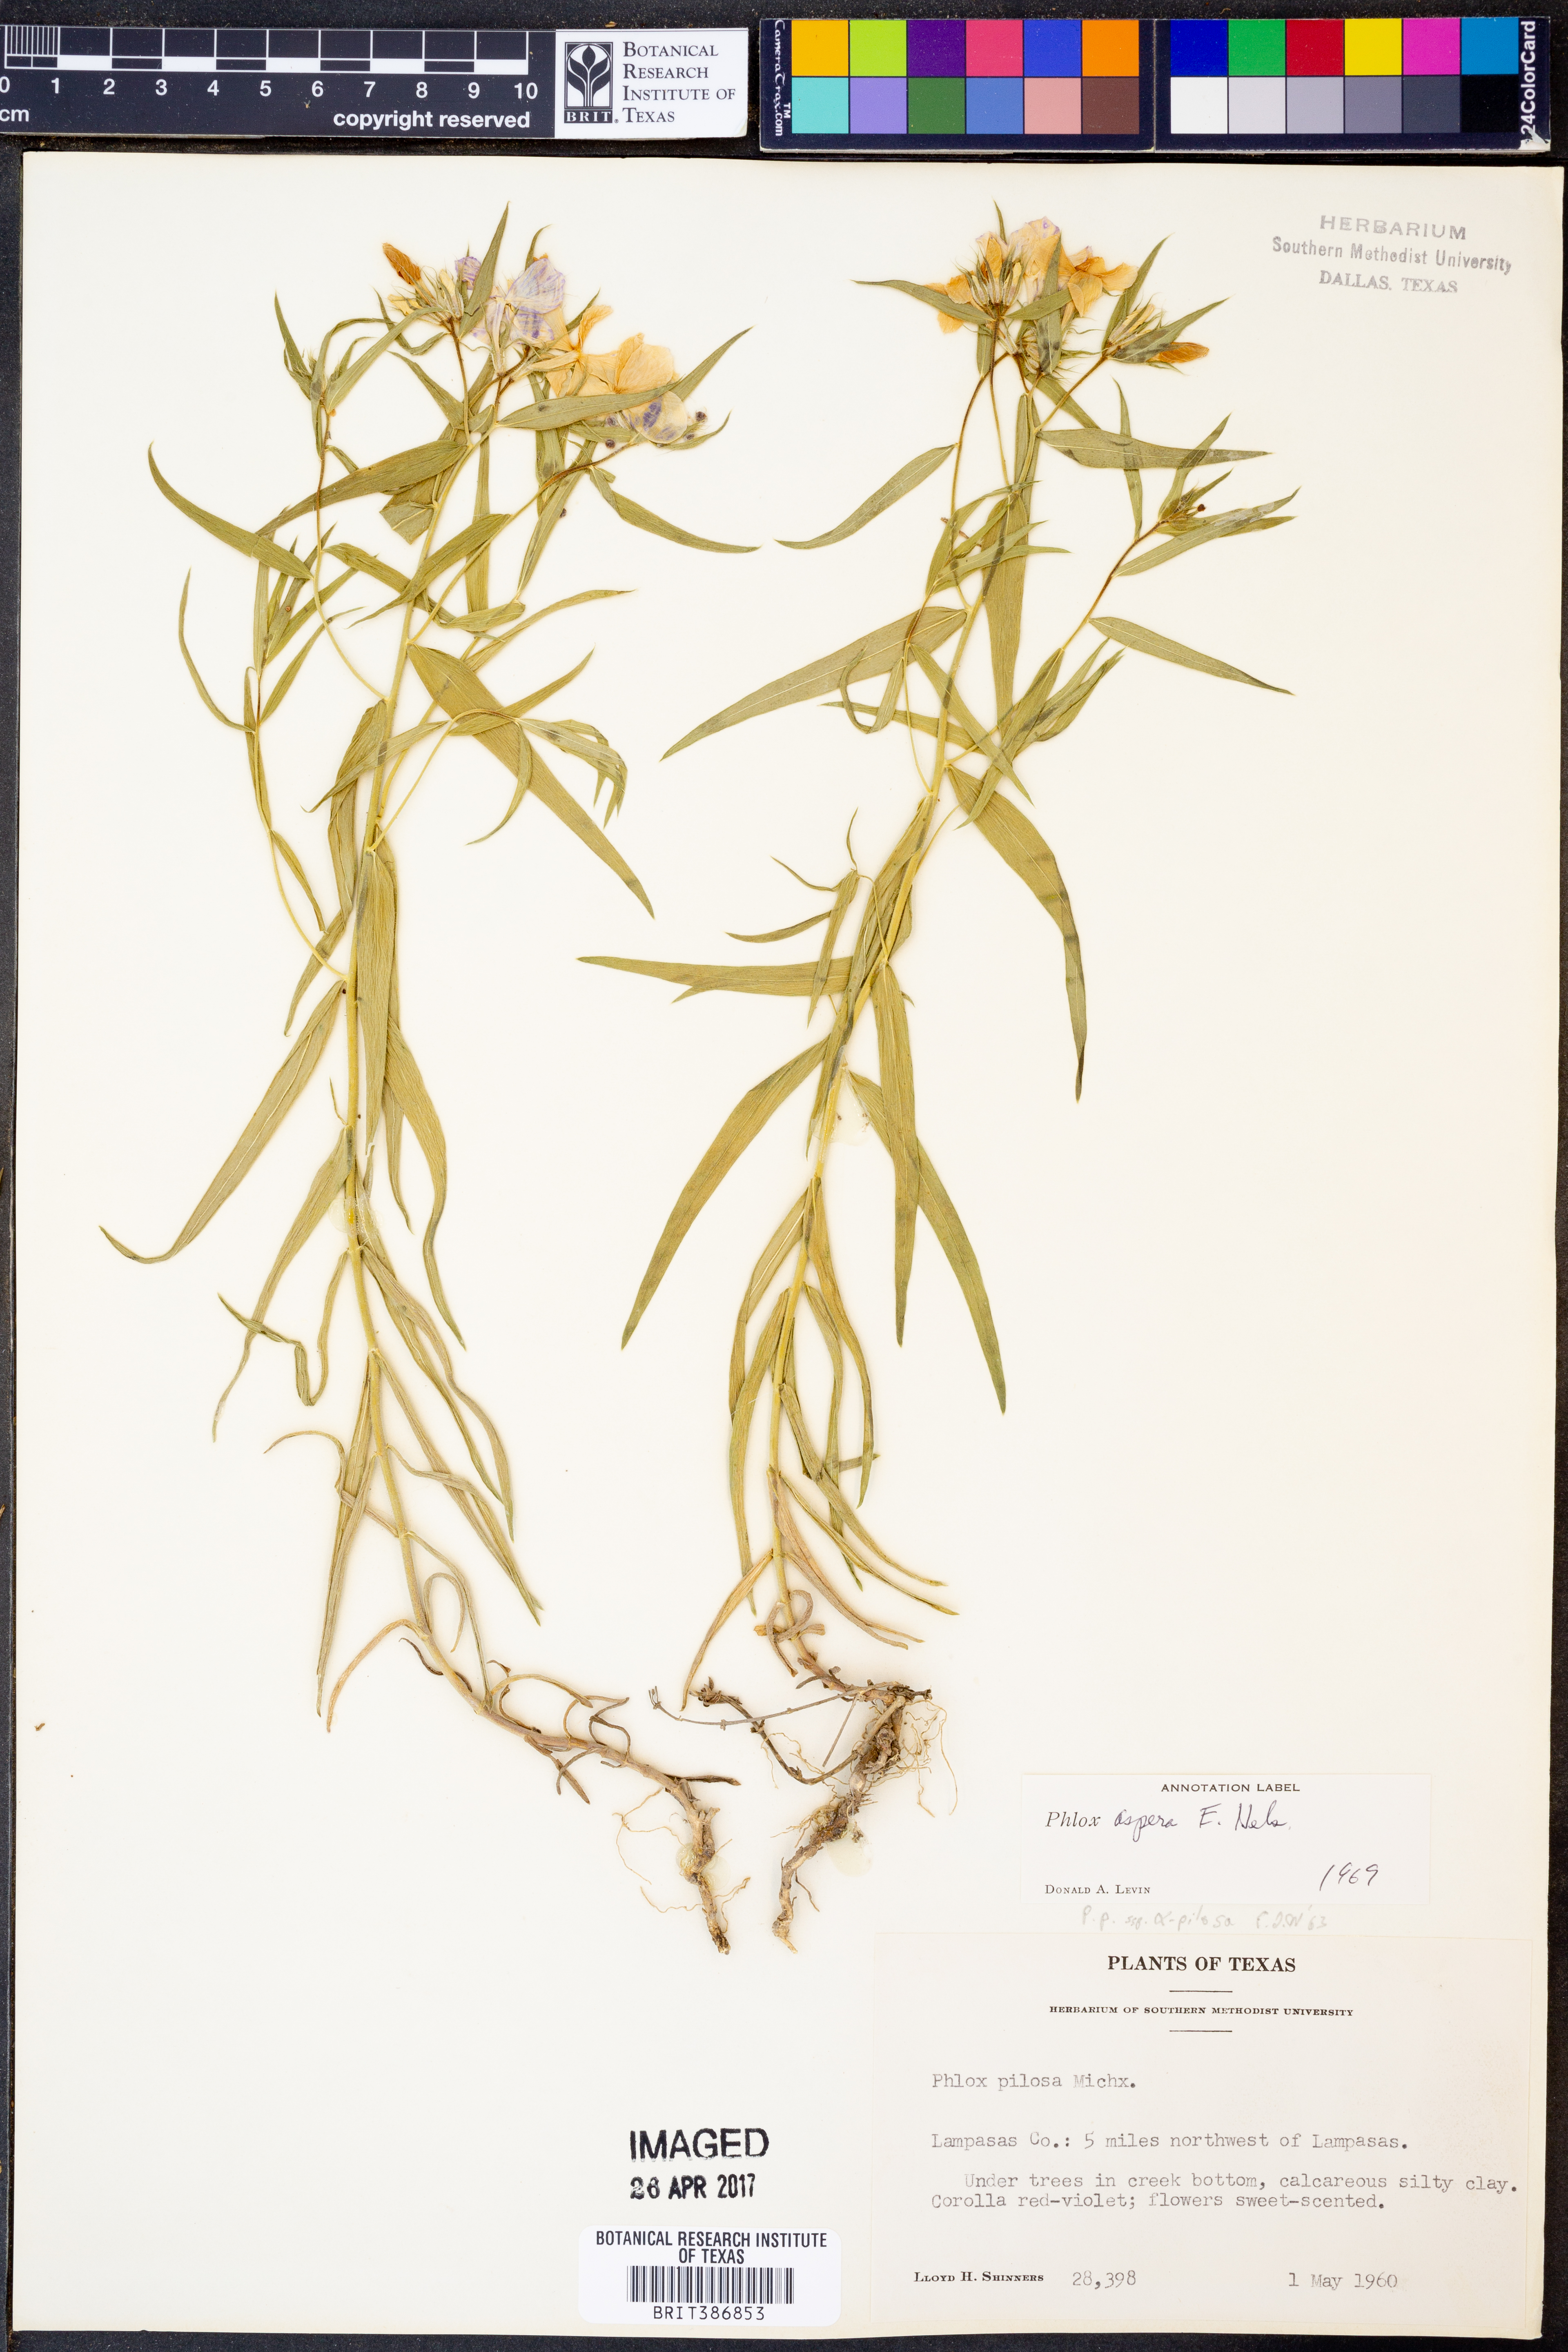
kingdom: Plantae
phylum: Tracheophyta
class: Magnoliopsida
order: Ericales
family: Polemoniaceae
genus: Phlox
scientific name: Phlox variabilis
